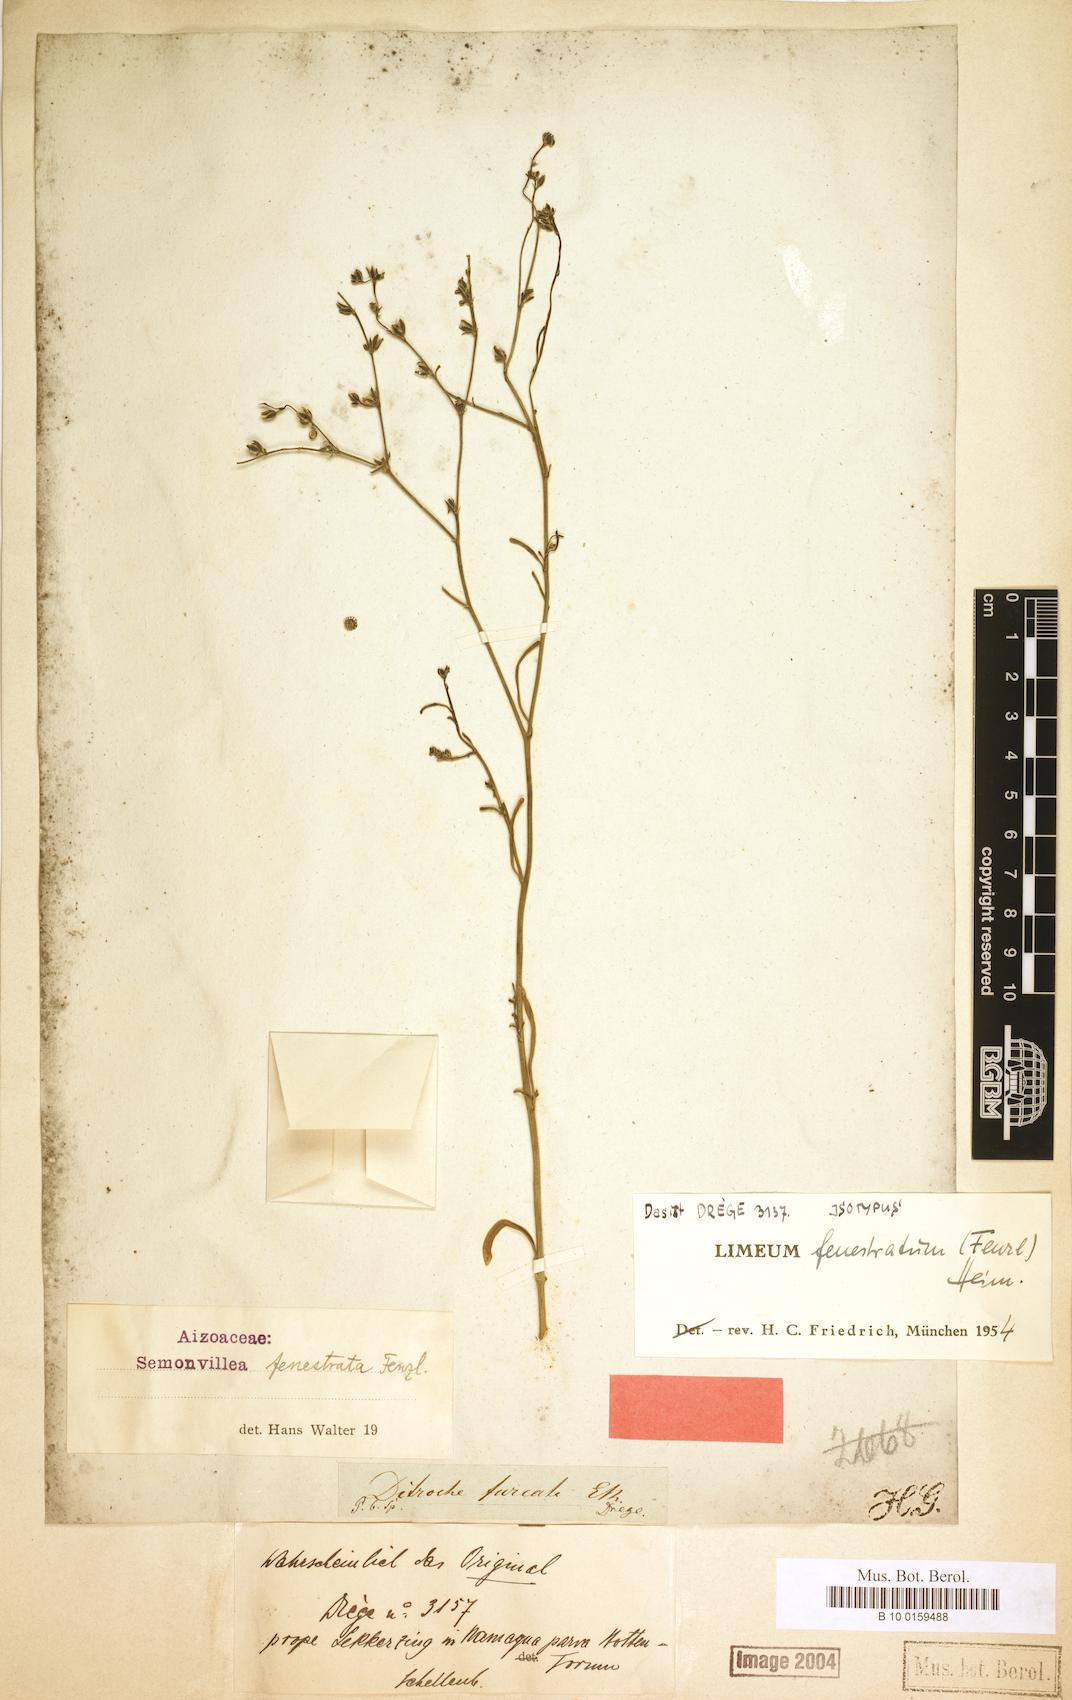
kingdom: Plantae
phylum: Tracheophyta
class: Magnoliopsida
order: Caryophyllales
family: Limeaceae
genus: Limeum
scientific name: Limeum fenestratum
